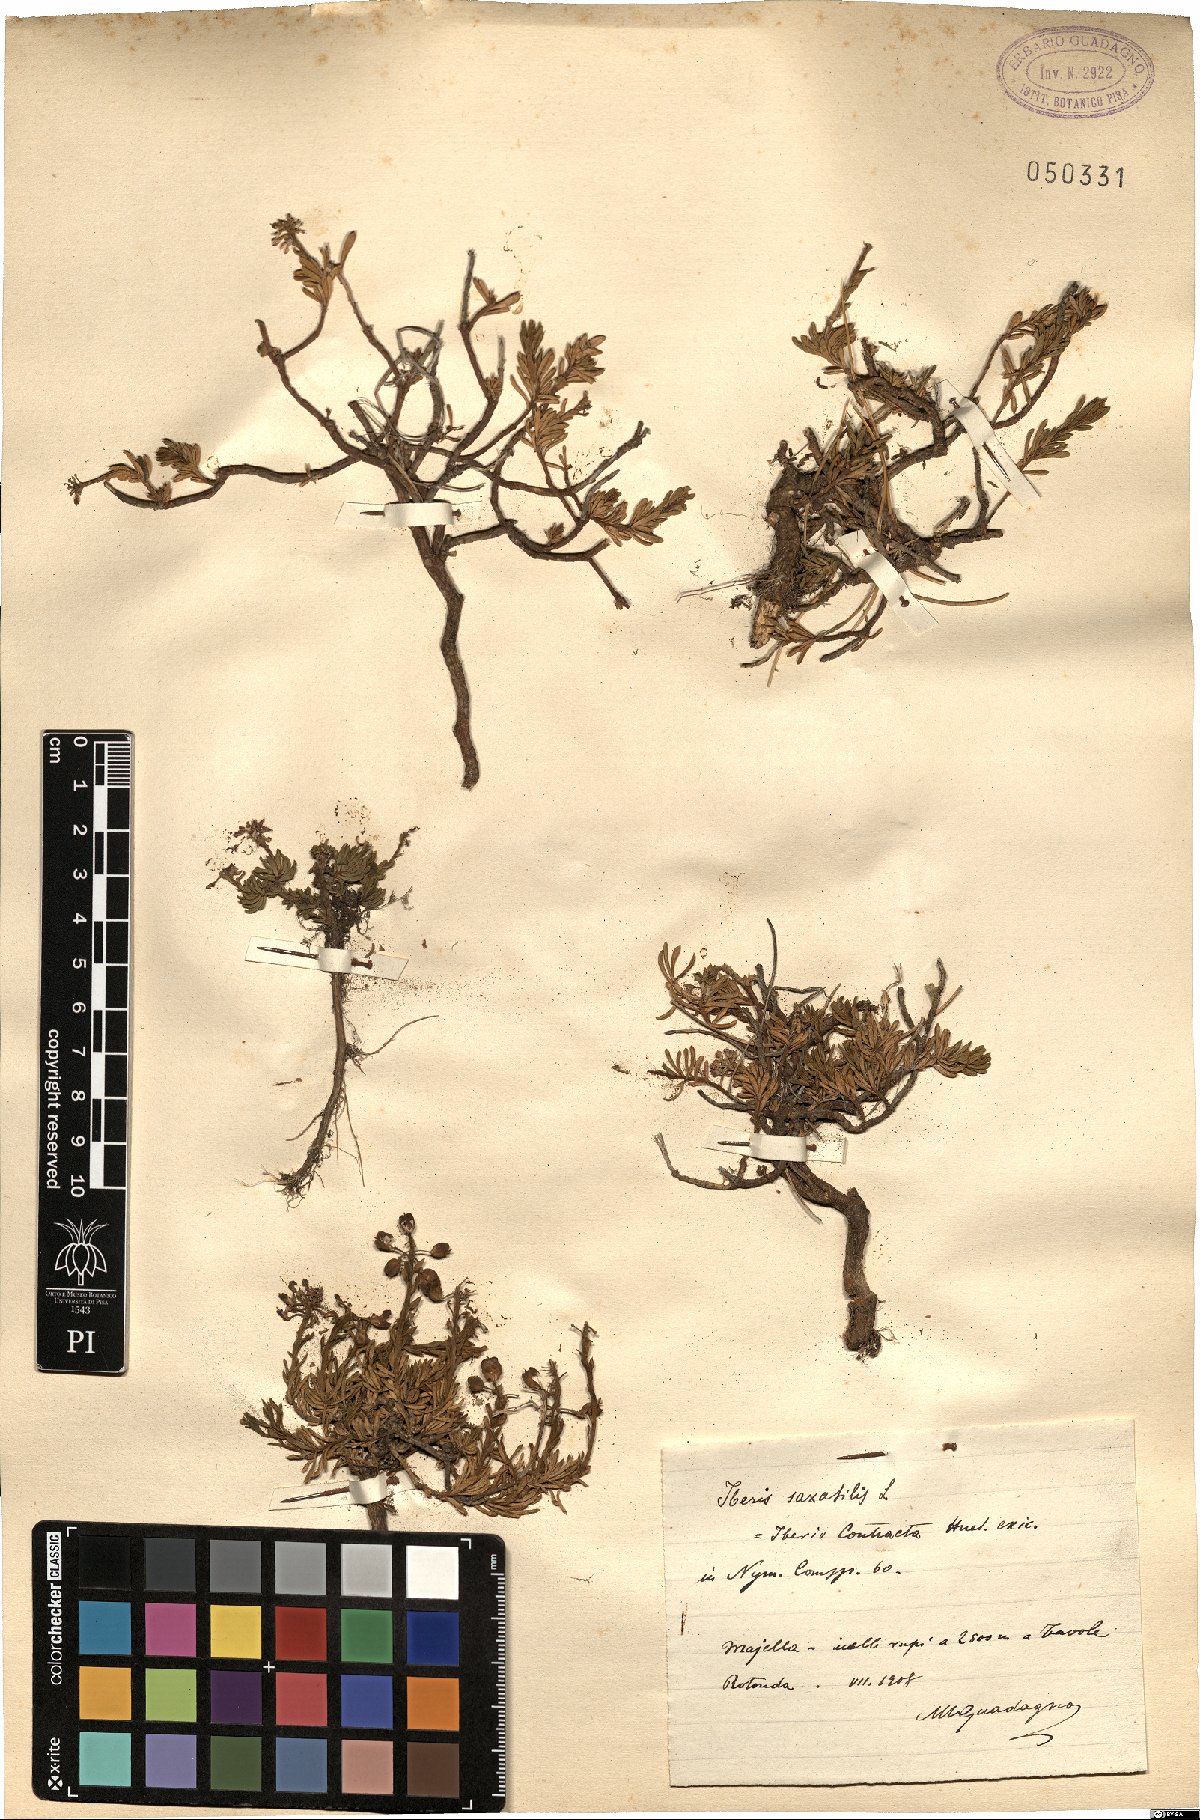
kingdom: Plantae
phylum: Tracheophyta
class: Magnoliopsida
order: Brassicales
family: Brassicaceae
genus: Iberis
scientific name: Iberis saxatilis
